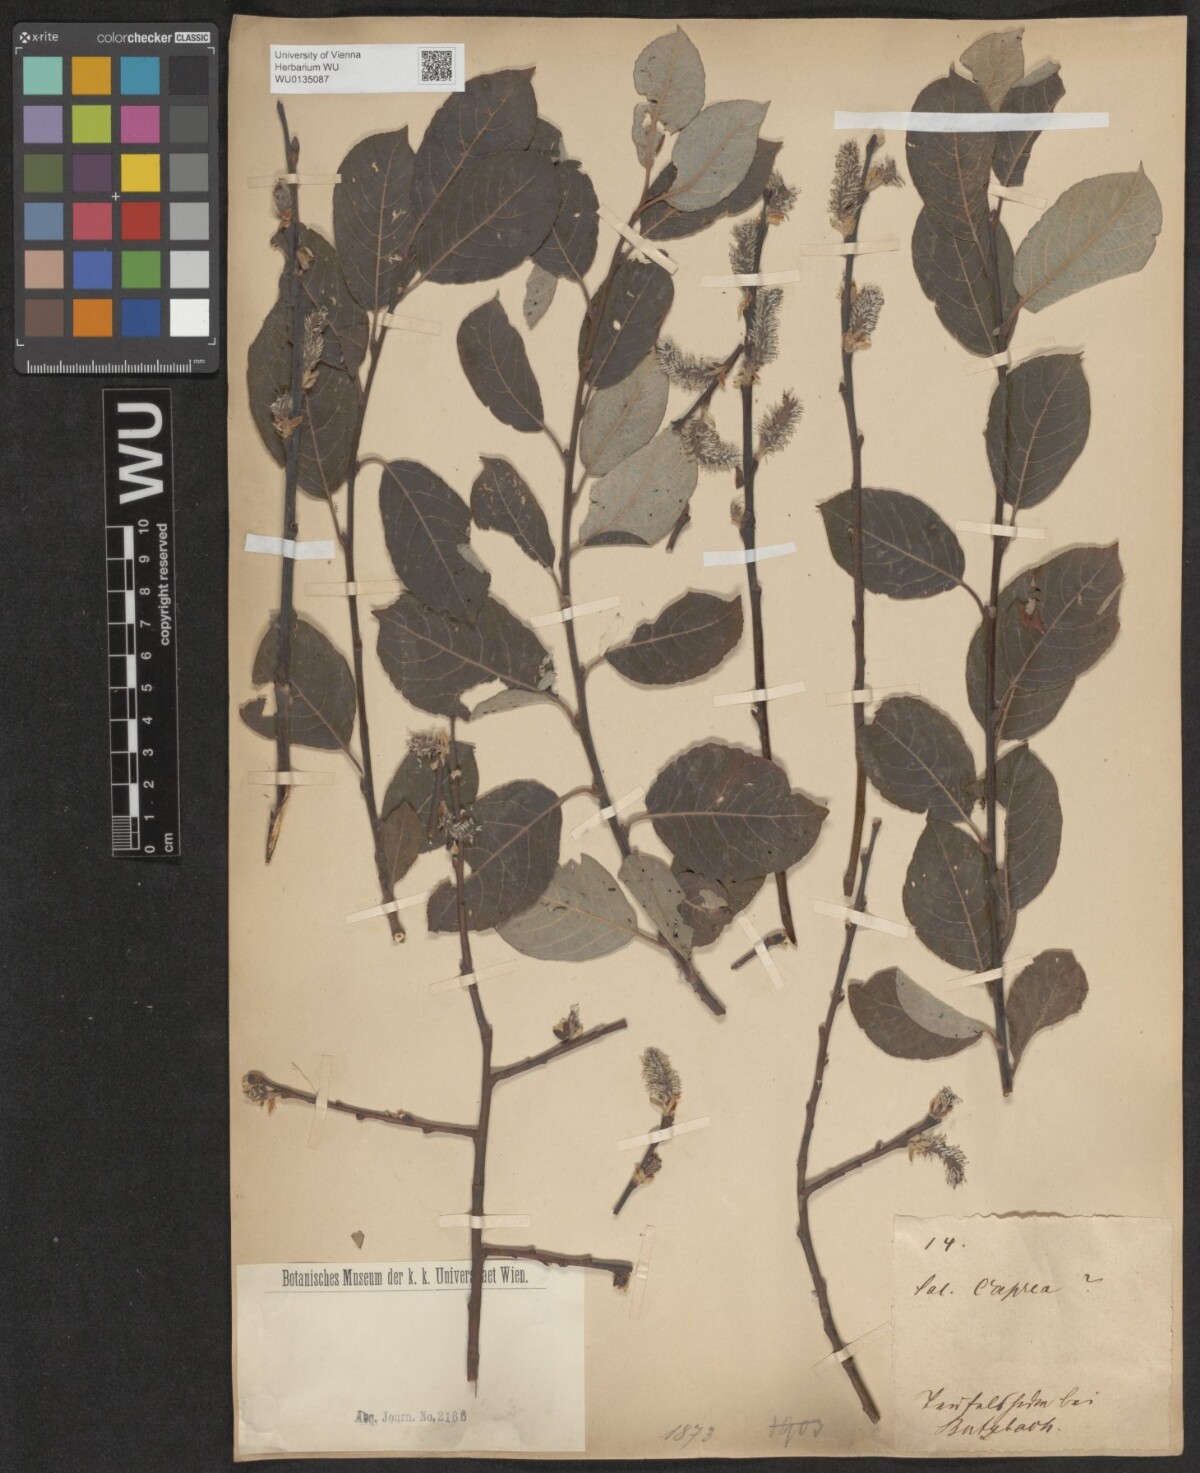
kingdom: Plantae
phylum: Tracheophyta
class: Magnoliopsida
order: Malpighiales
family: Salicaceae
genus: Salix
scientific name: Salix caprea
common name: Goat willow
